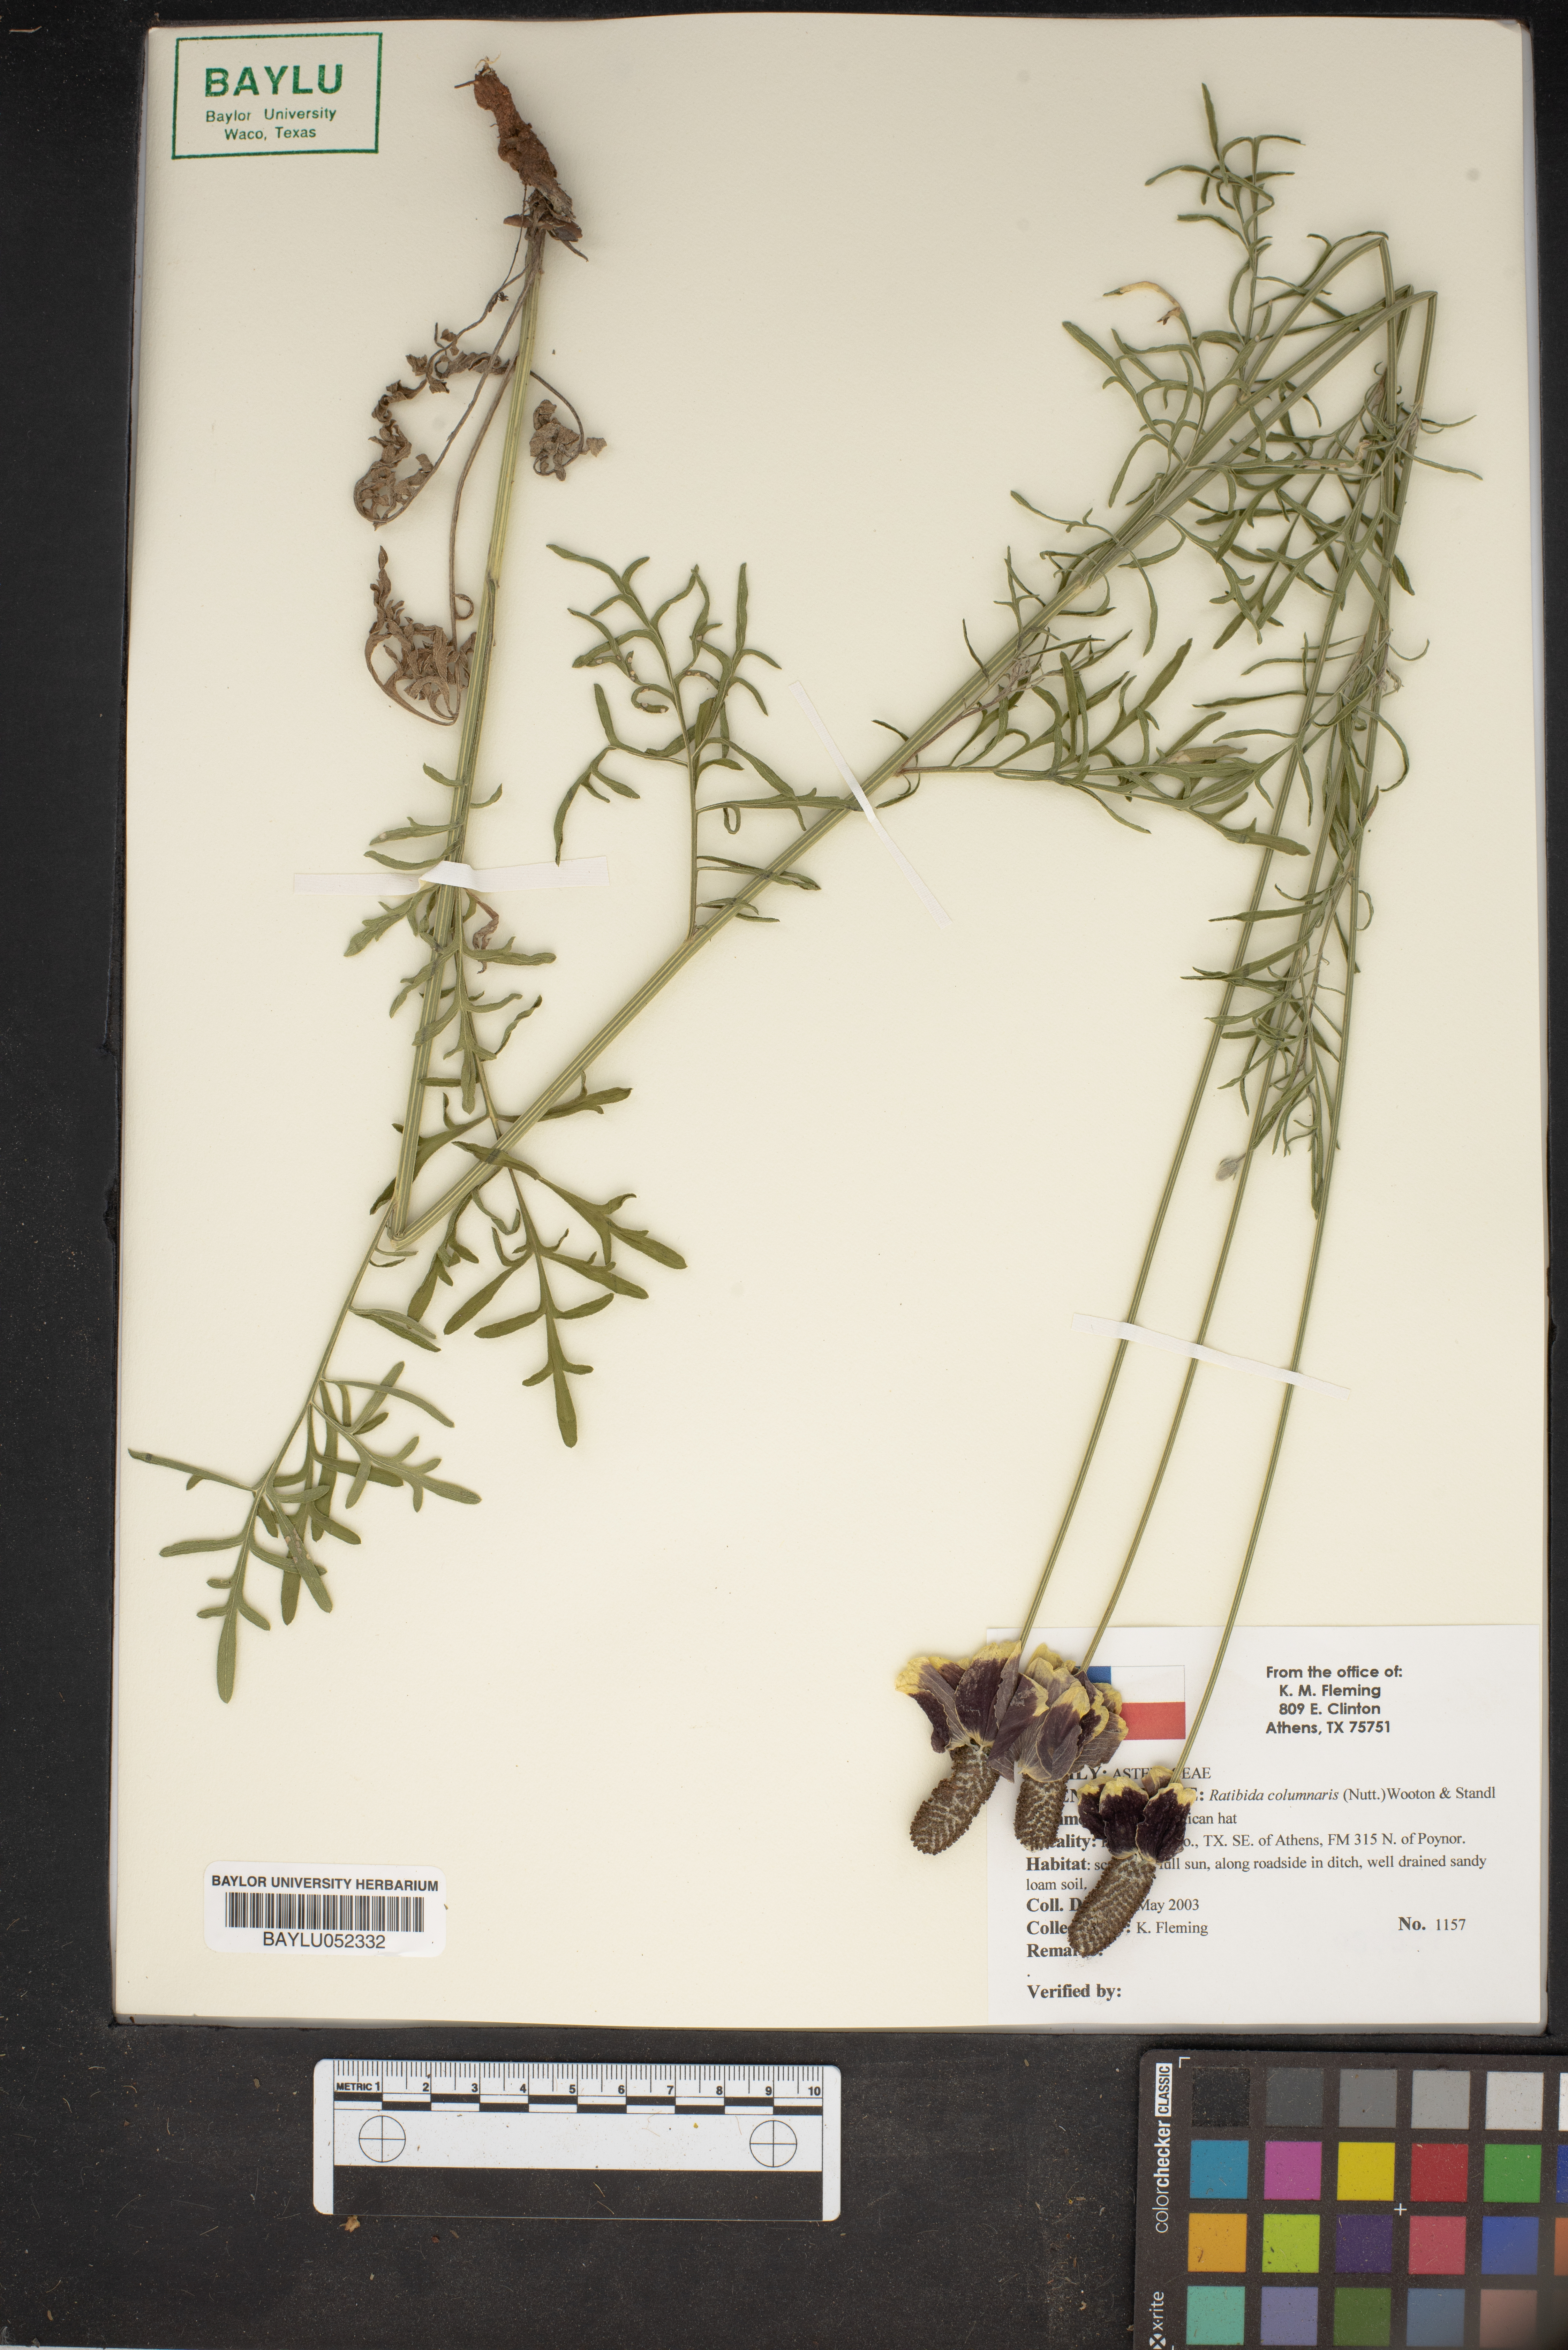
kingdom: Plantae
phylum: Tracheophyta
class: Magnoliopsida
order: Asterales
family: Asteraceae
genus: Ratibida
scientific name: Ratibida columnifera
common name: Prairie coneflower
